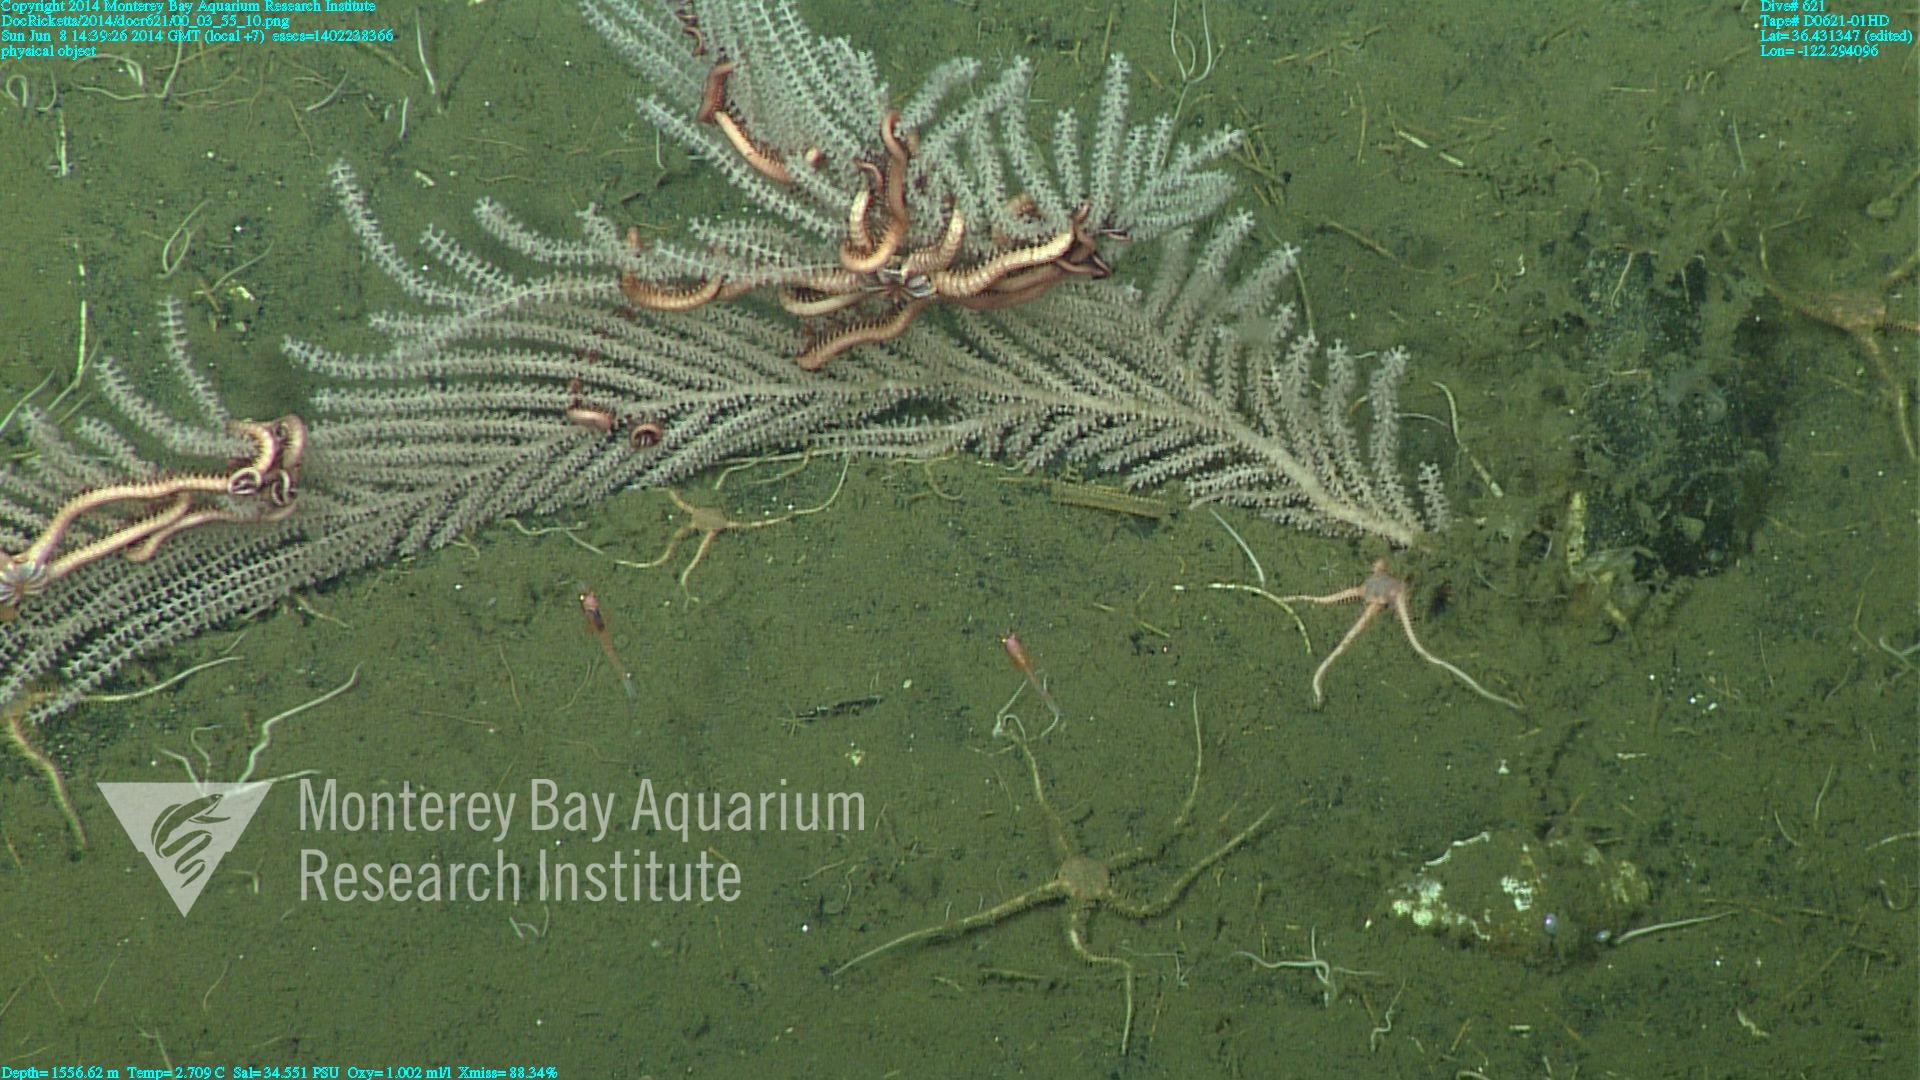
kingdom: Animalia
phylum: Cnidaria
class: Anthozoa
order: Scleralcyonacea
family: Primnoidae
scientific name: Primnoidae
